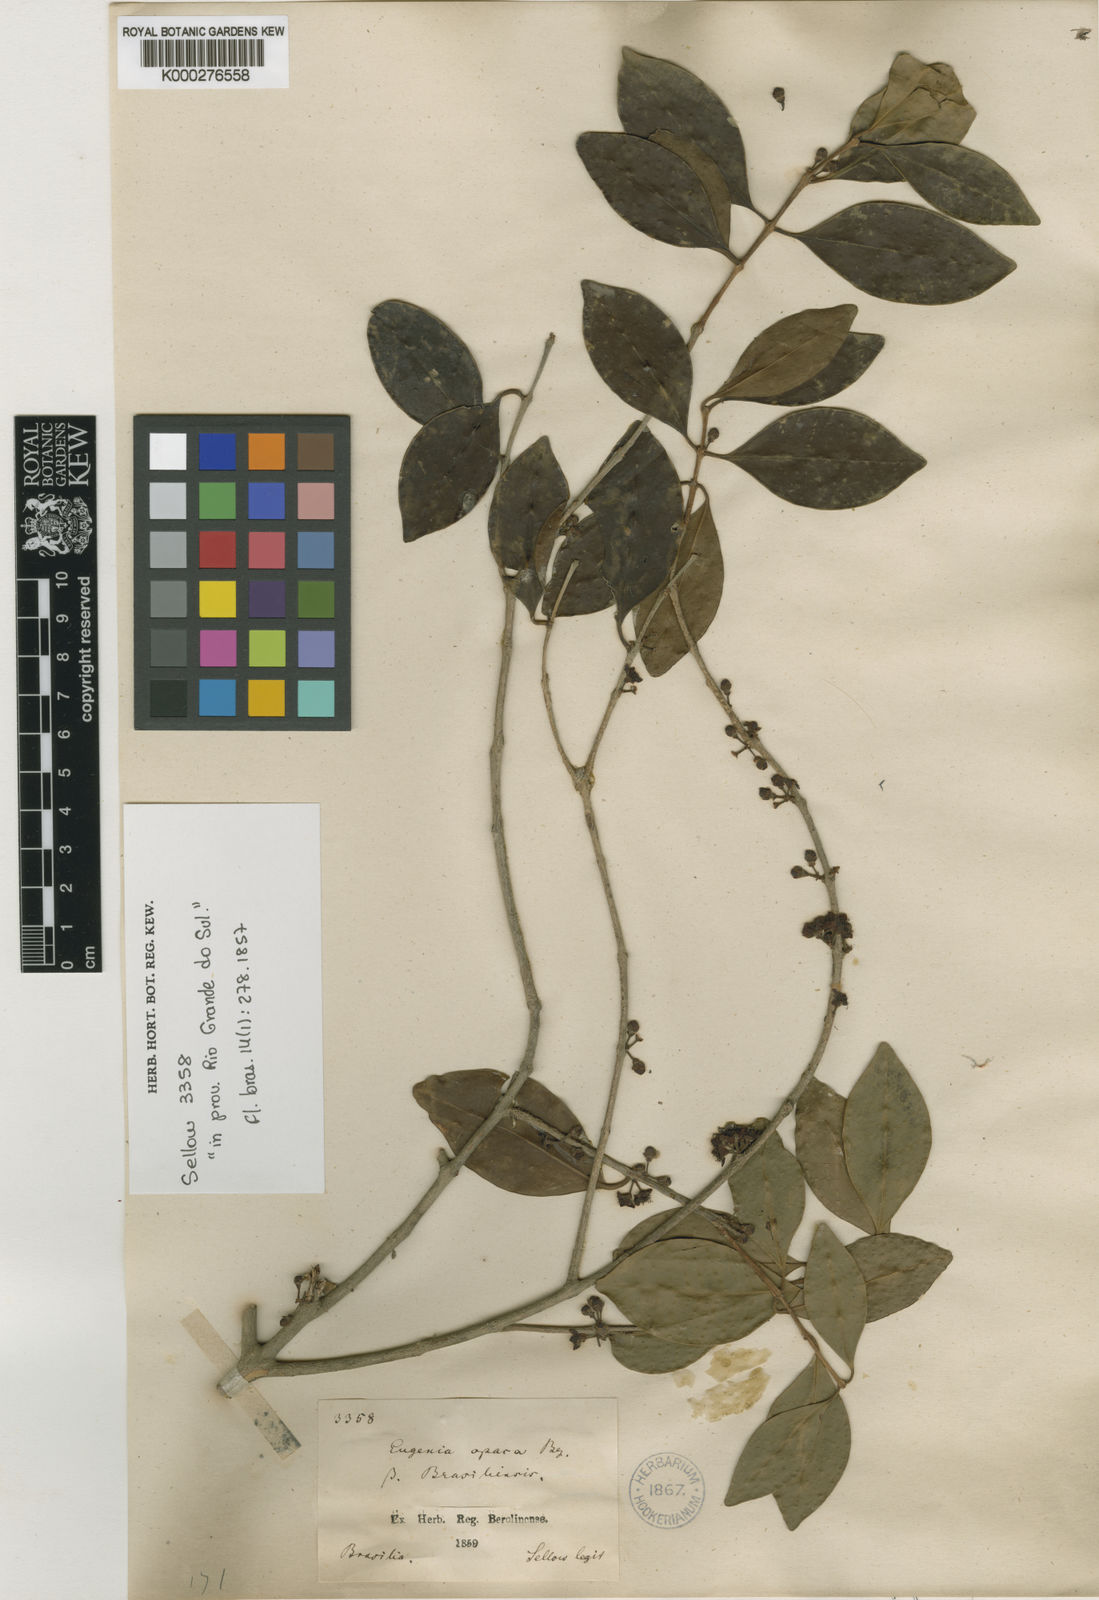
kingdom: Plantae
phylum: Tracheophyta
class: Magnoliopsida
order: Myrtales
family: Myrtaceae
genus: Eugenia
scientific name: Eugenia uruguayensis
